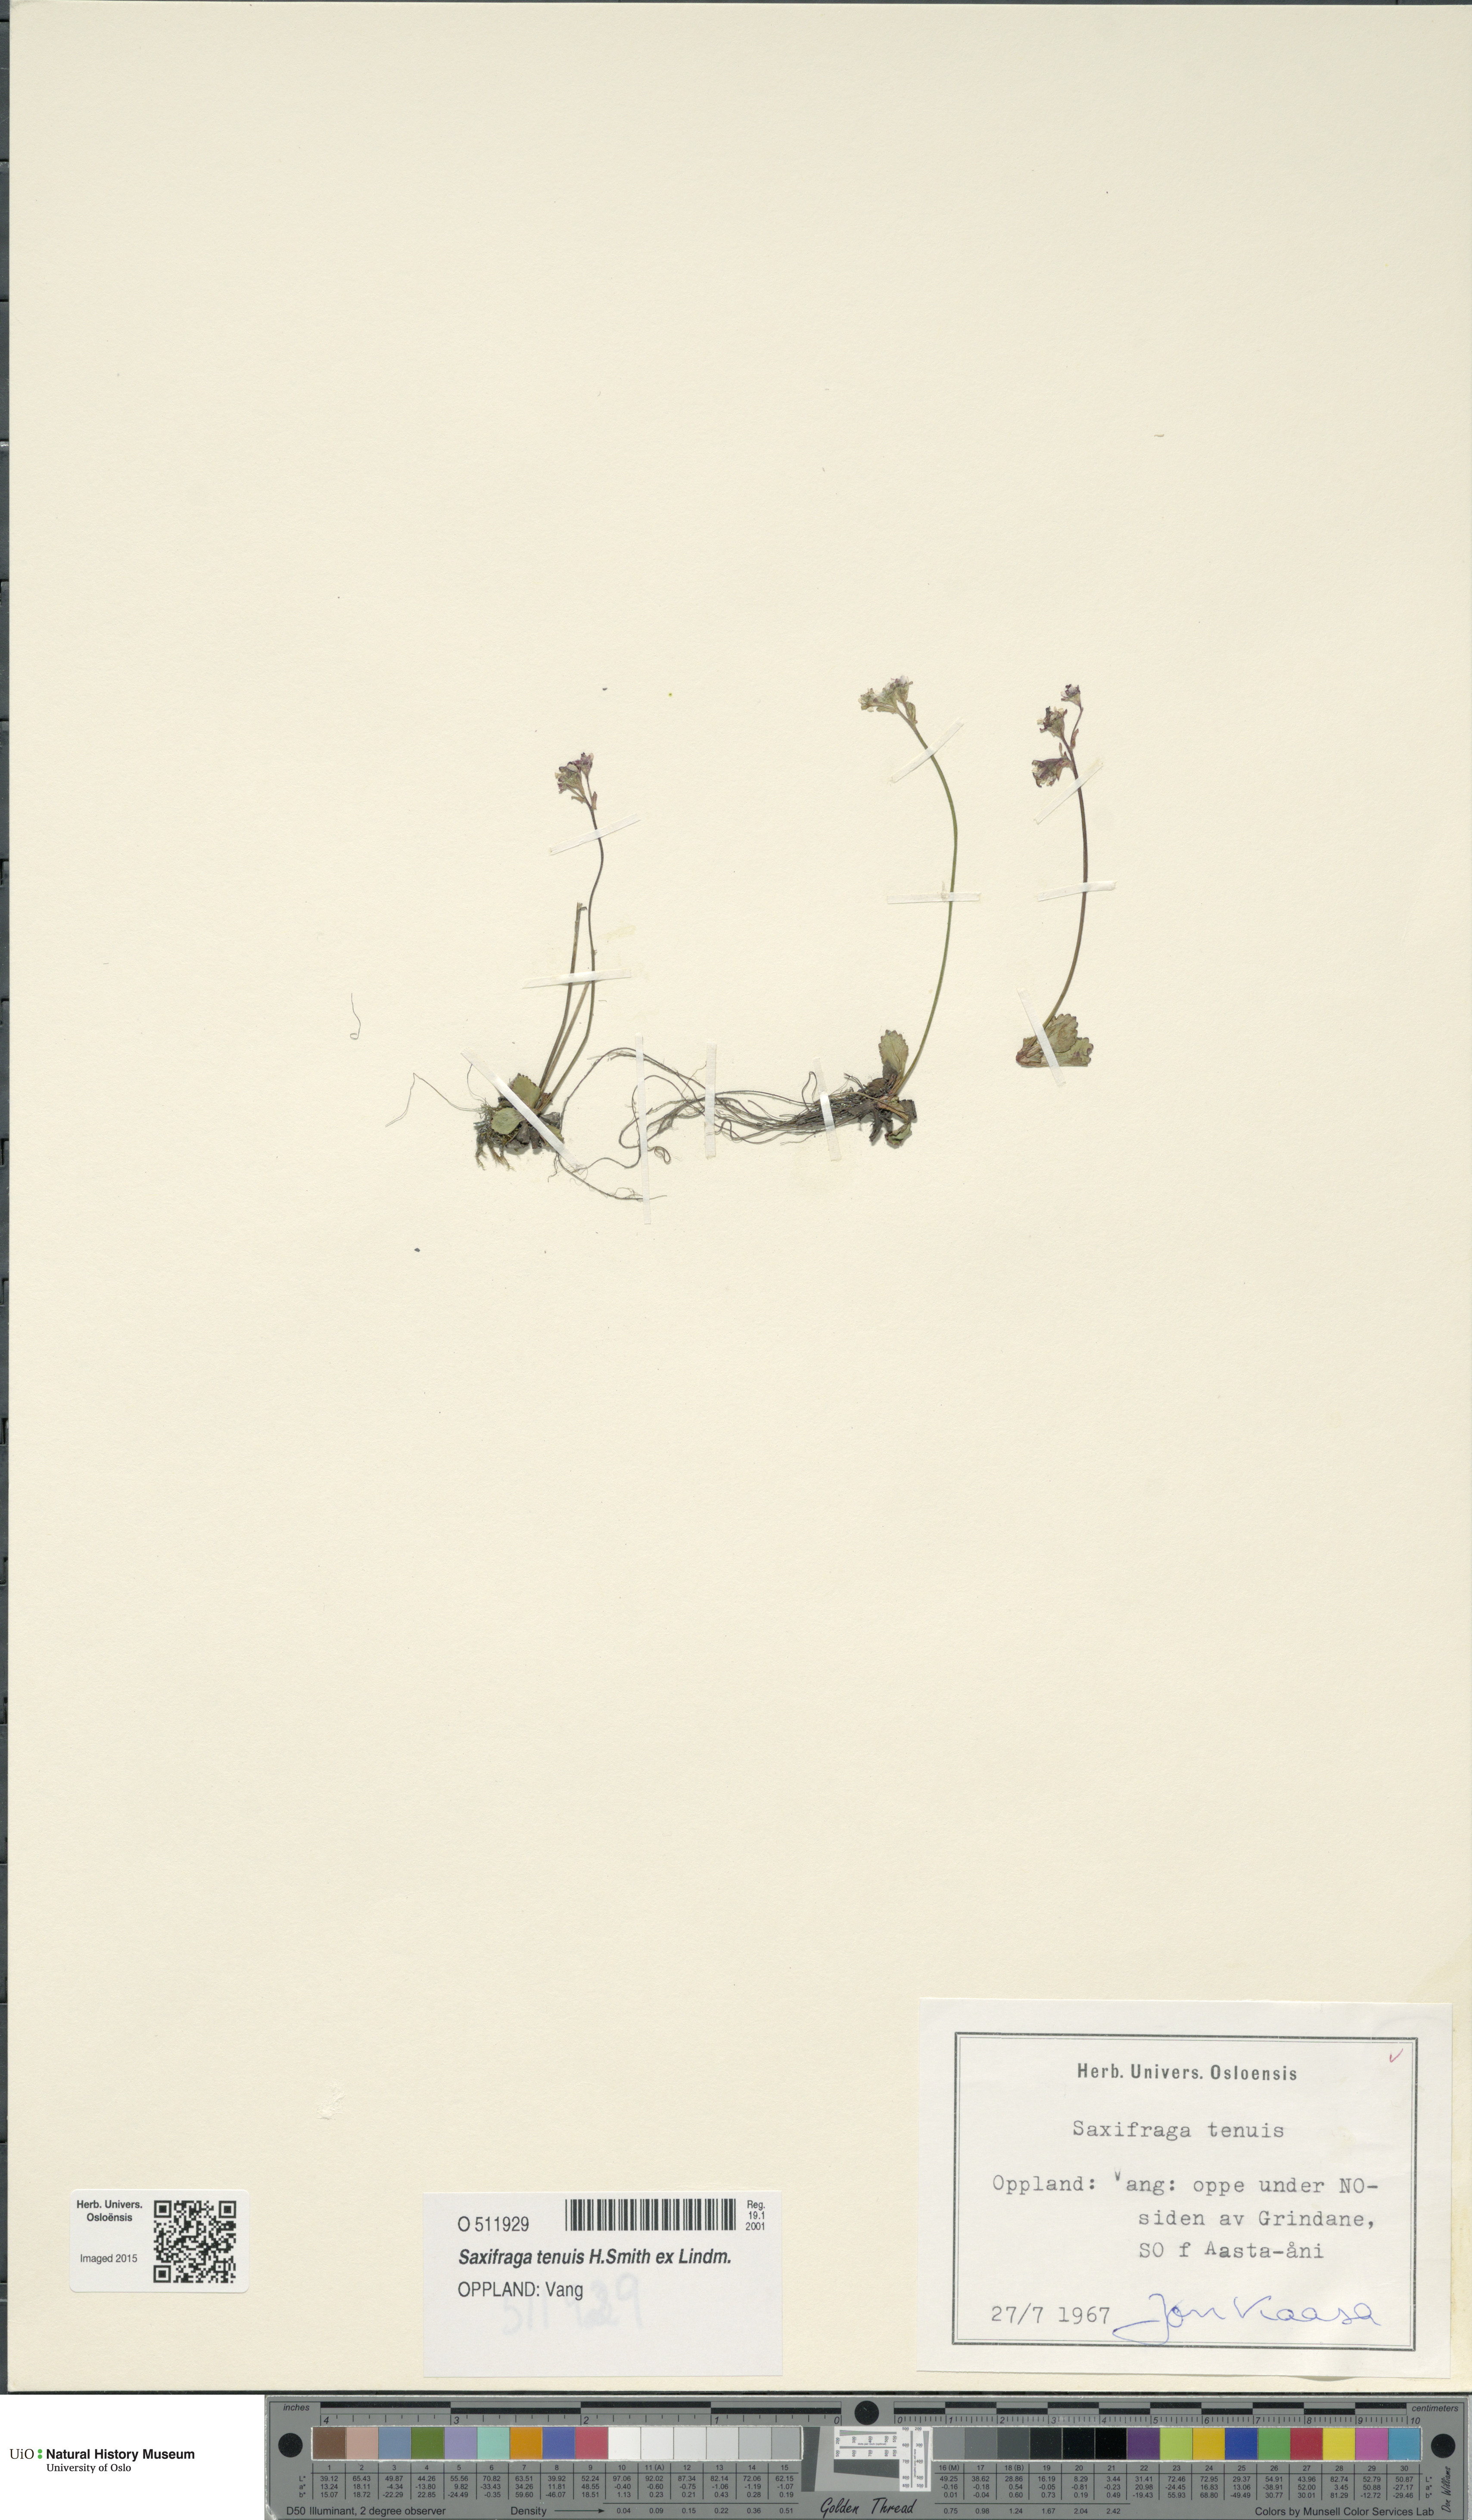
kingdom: Plantae
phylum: Tracheophyta
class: Magnoliopsida
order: Saxifragales
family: Saxifragaceae
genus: Micranthes
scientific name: Micranthes tenuis
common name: Ottertail pass saxifrage
